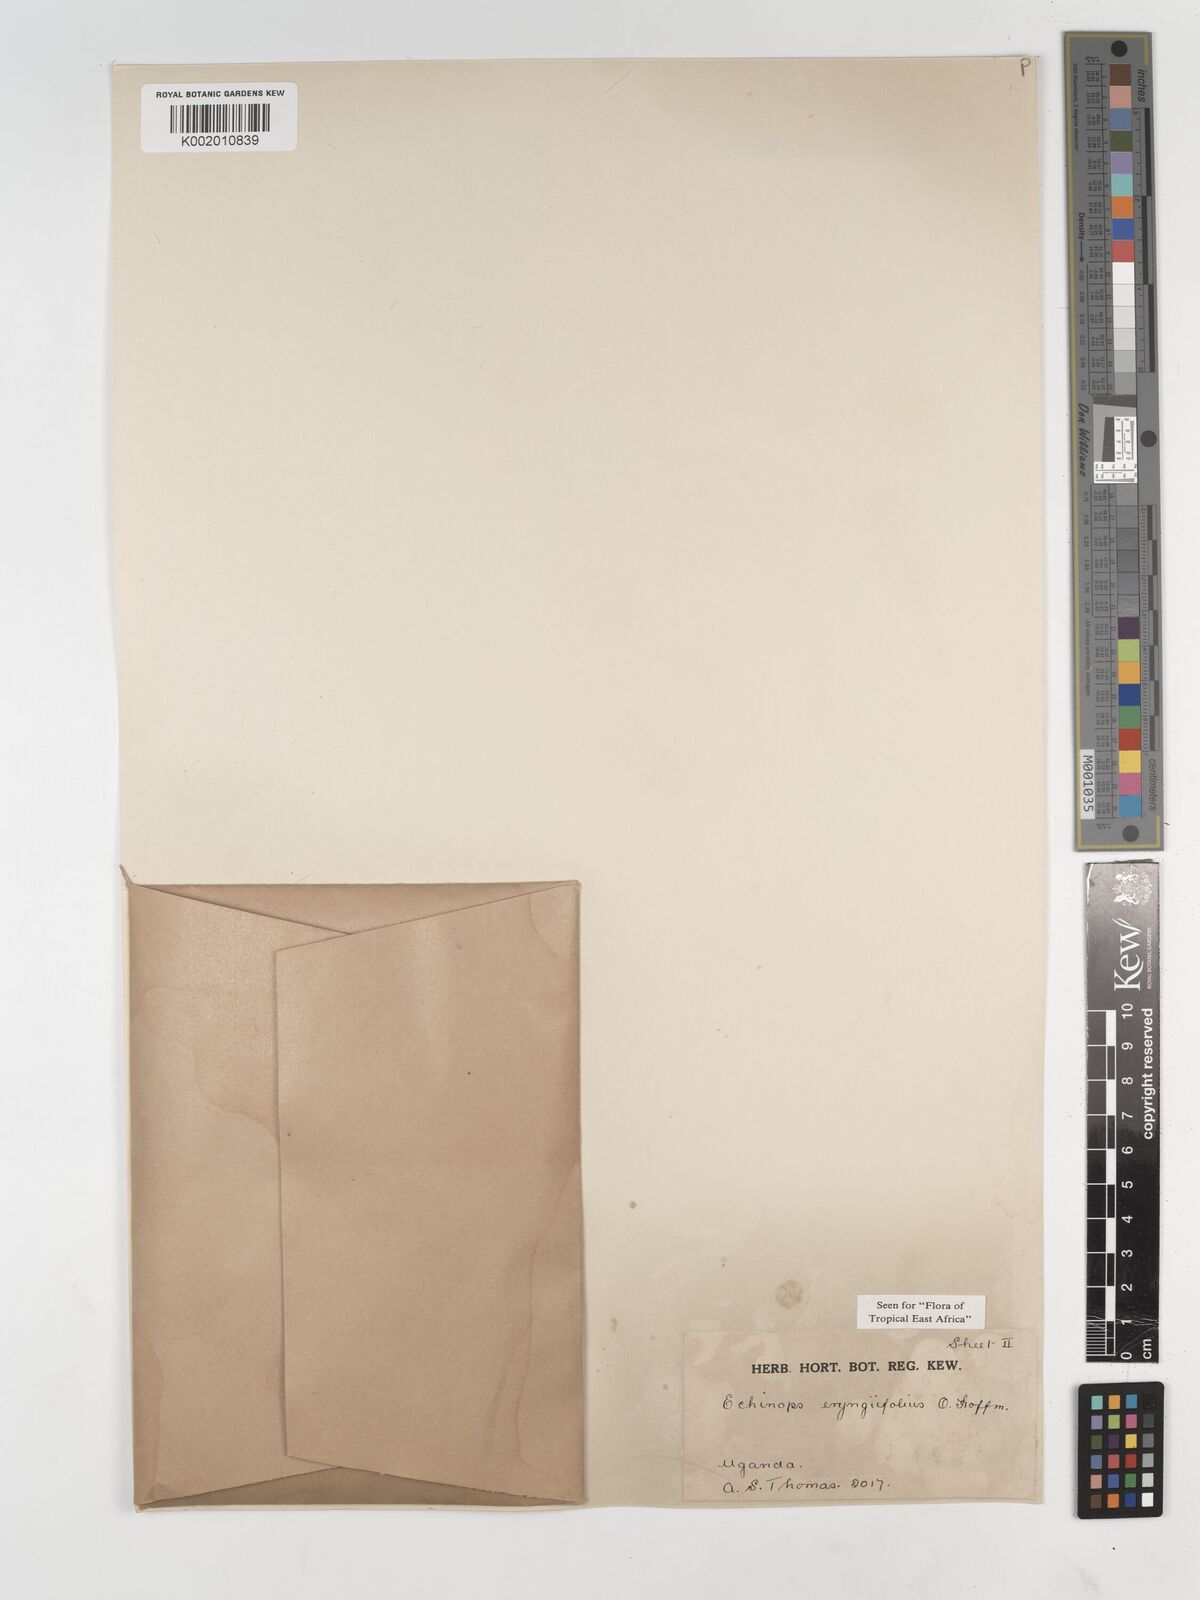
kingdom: Plantae
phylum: Tracheophyta
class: Magnoliopsida
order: Asterales
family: Asteraceae
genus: Echinops
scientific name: Echinops eryngiifolius
